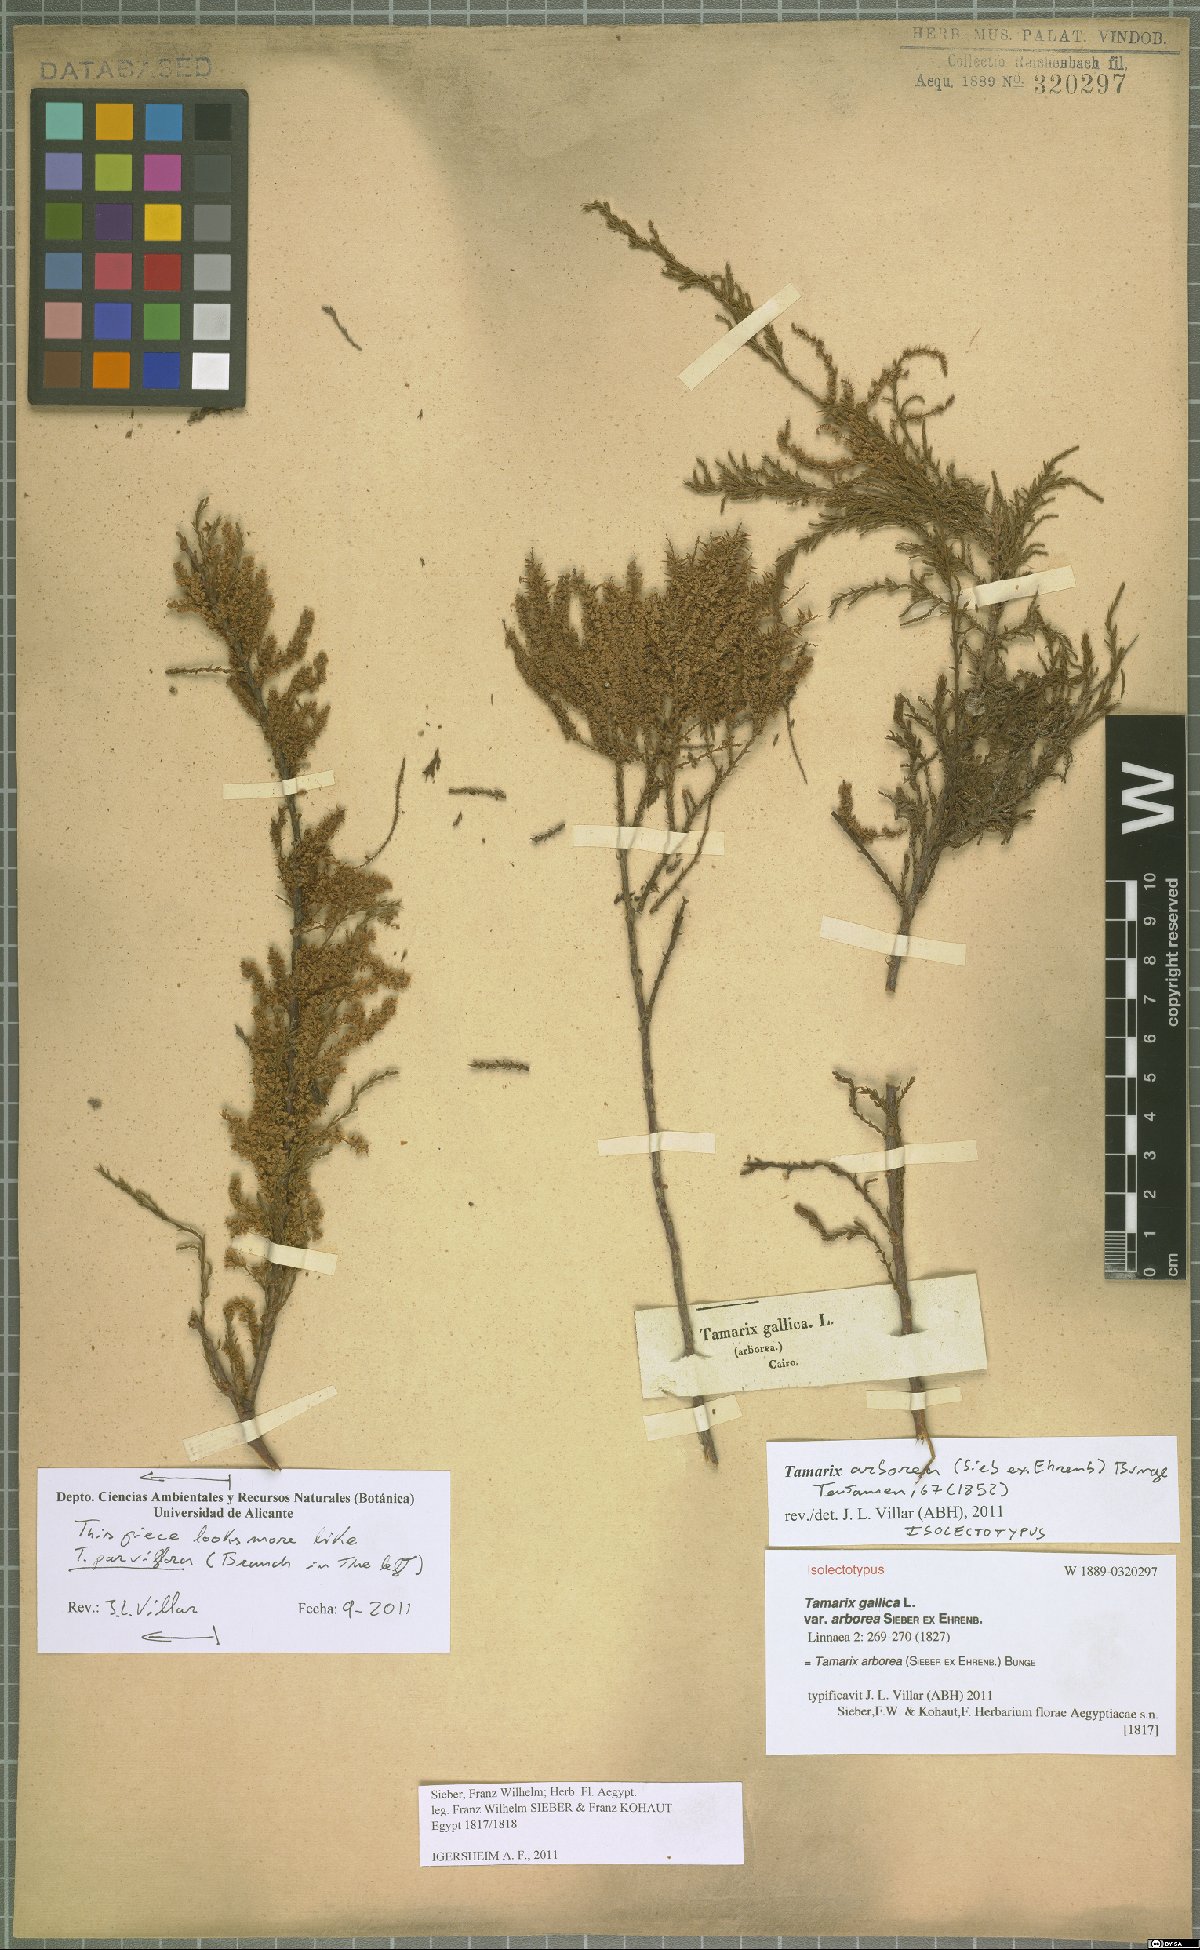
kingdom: Plantae
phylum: Tracheophyta
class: Magnoliopsida
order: Caryophyllales
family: Tamaricaceae
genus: Tamarix
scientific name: Tamarix arborea
